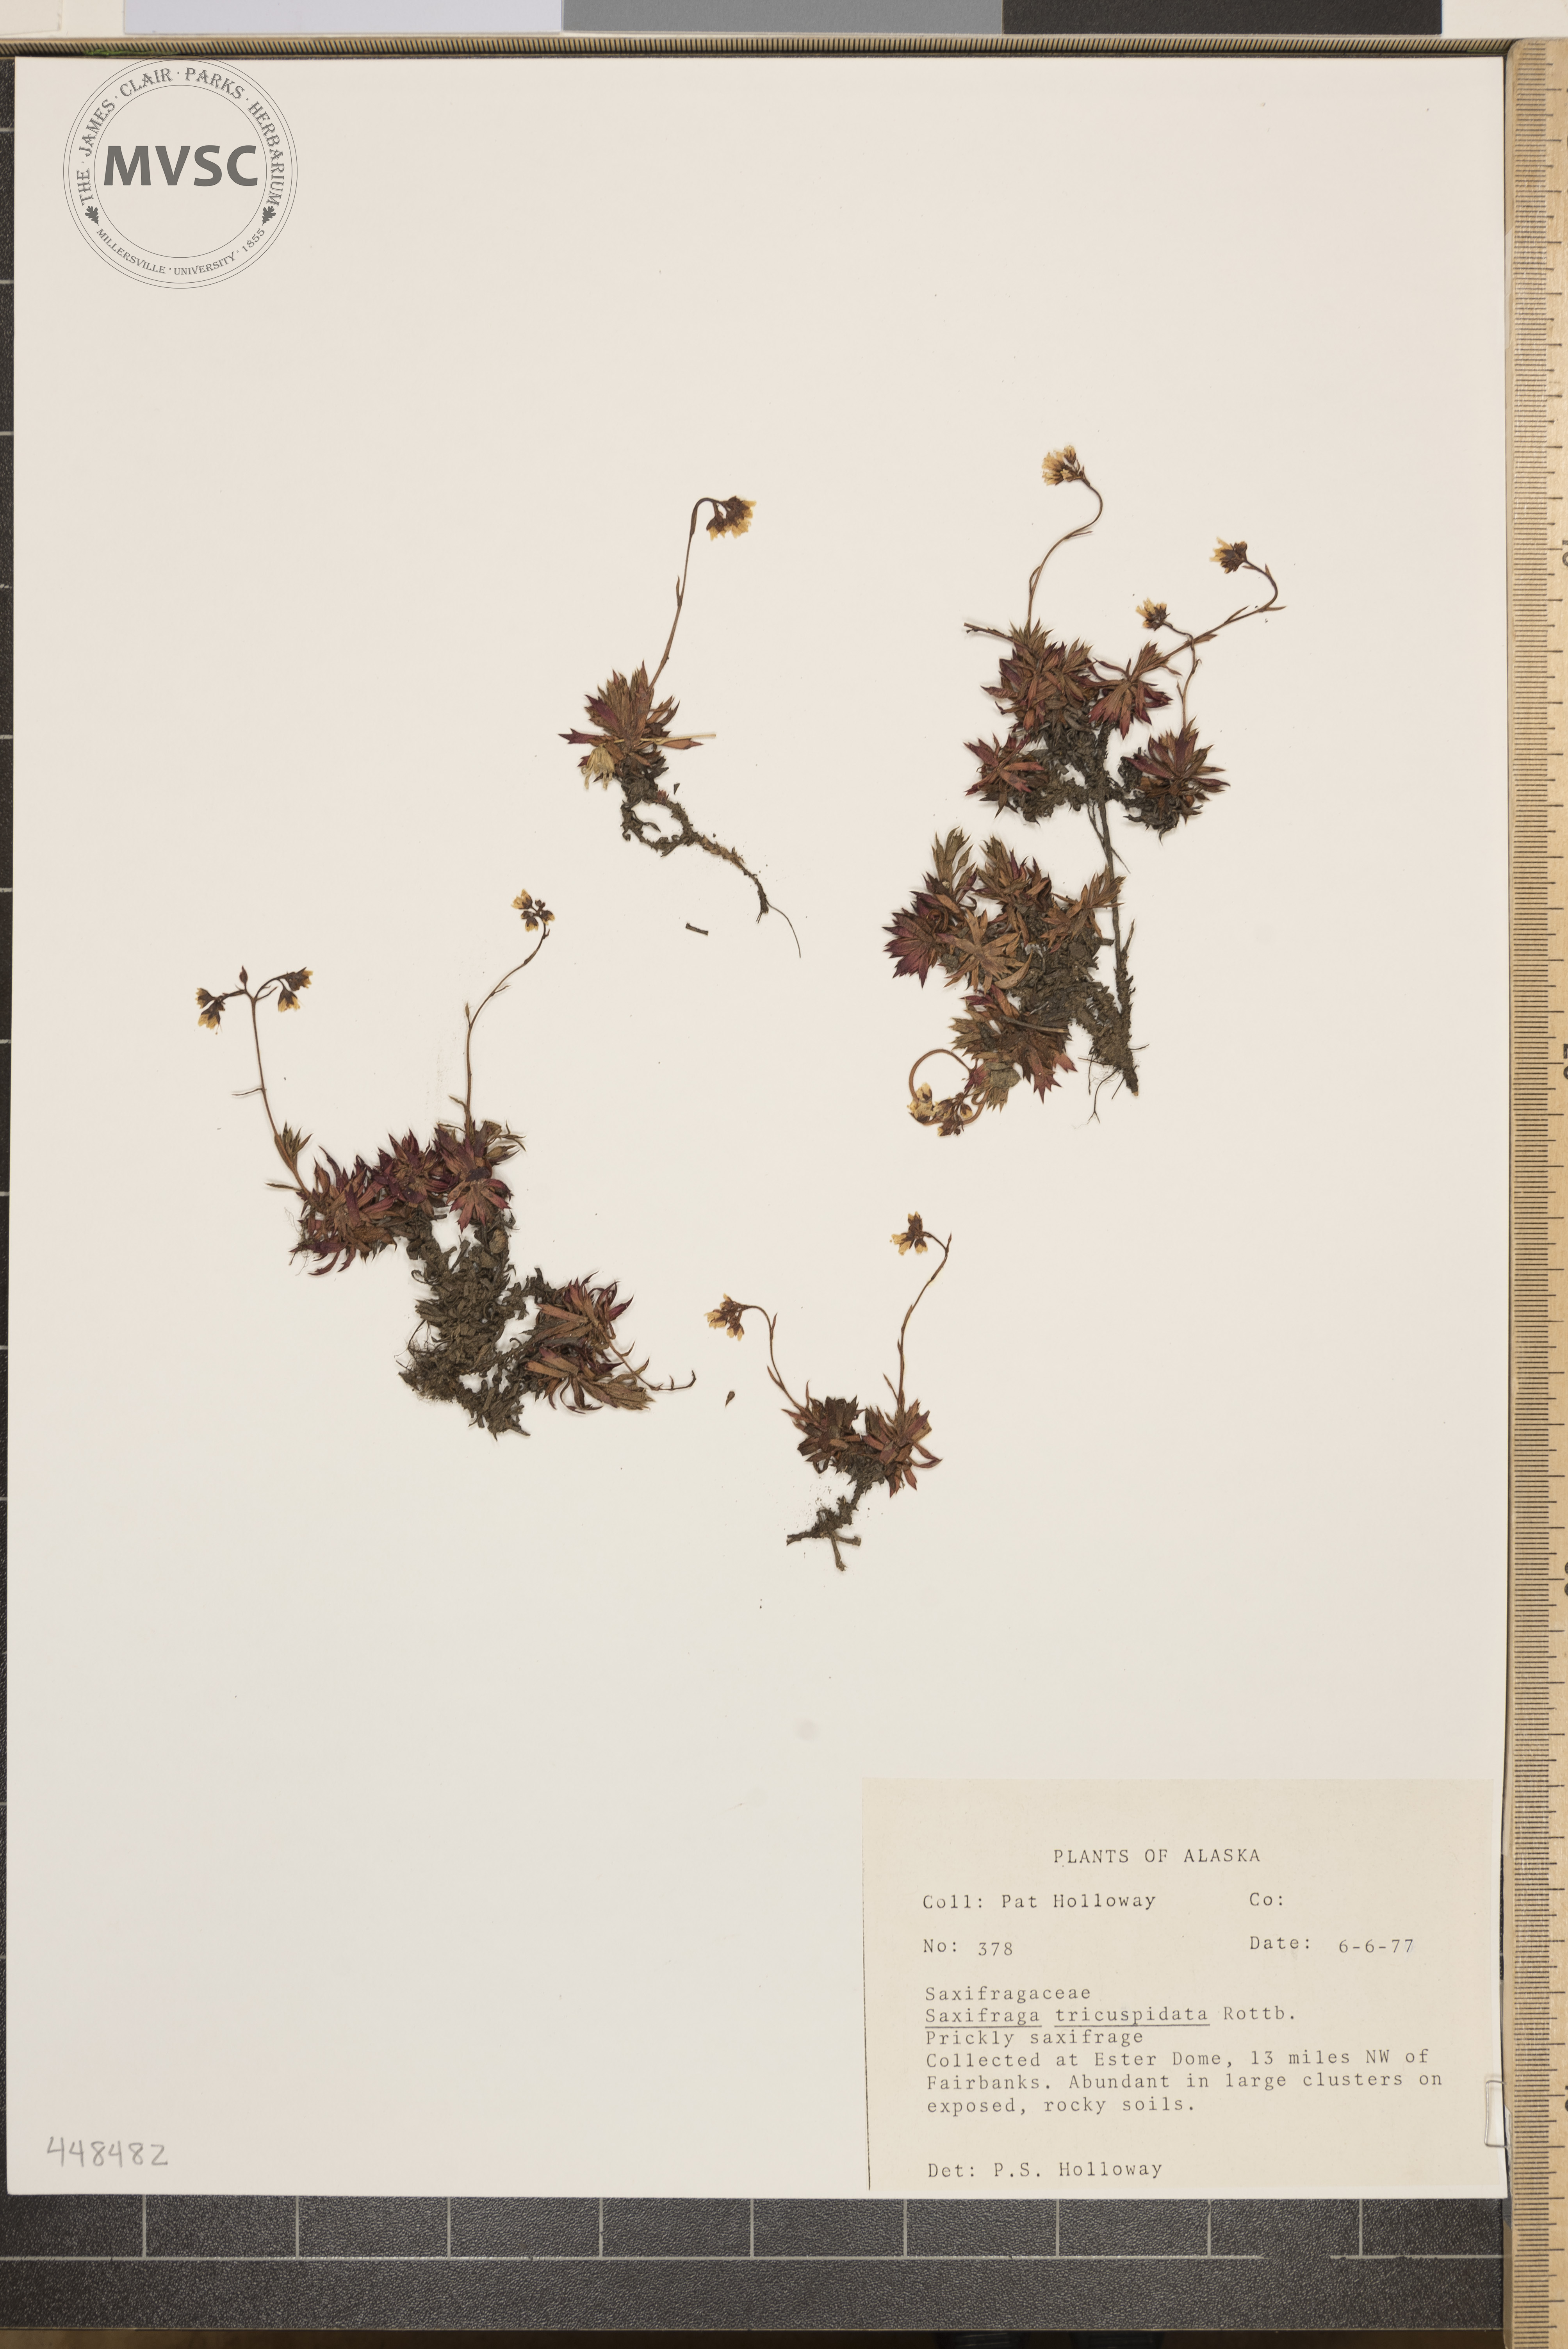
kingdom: Plantae
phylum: Tracheophyta
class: Magnoliopsida
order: Saxifragales
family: Saxifragaceae
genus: Saxifraga
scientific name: Saxifraga tricuspidata
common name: Prickly saxifrage
